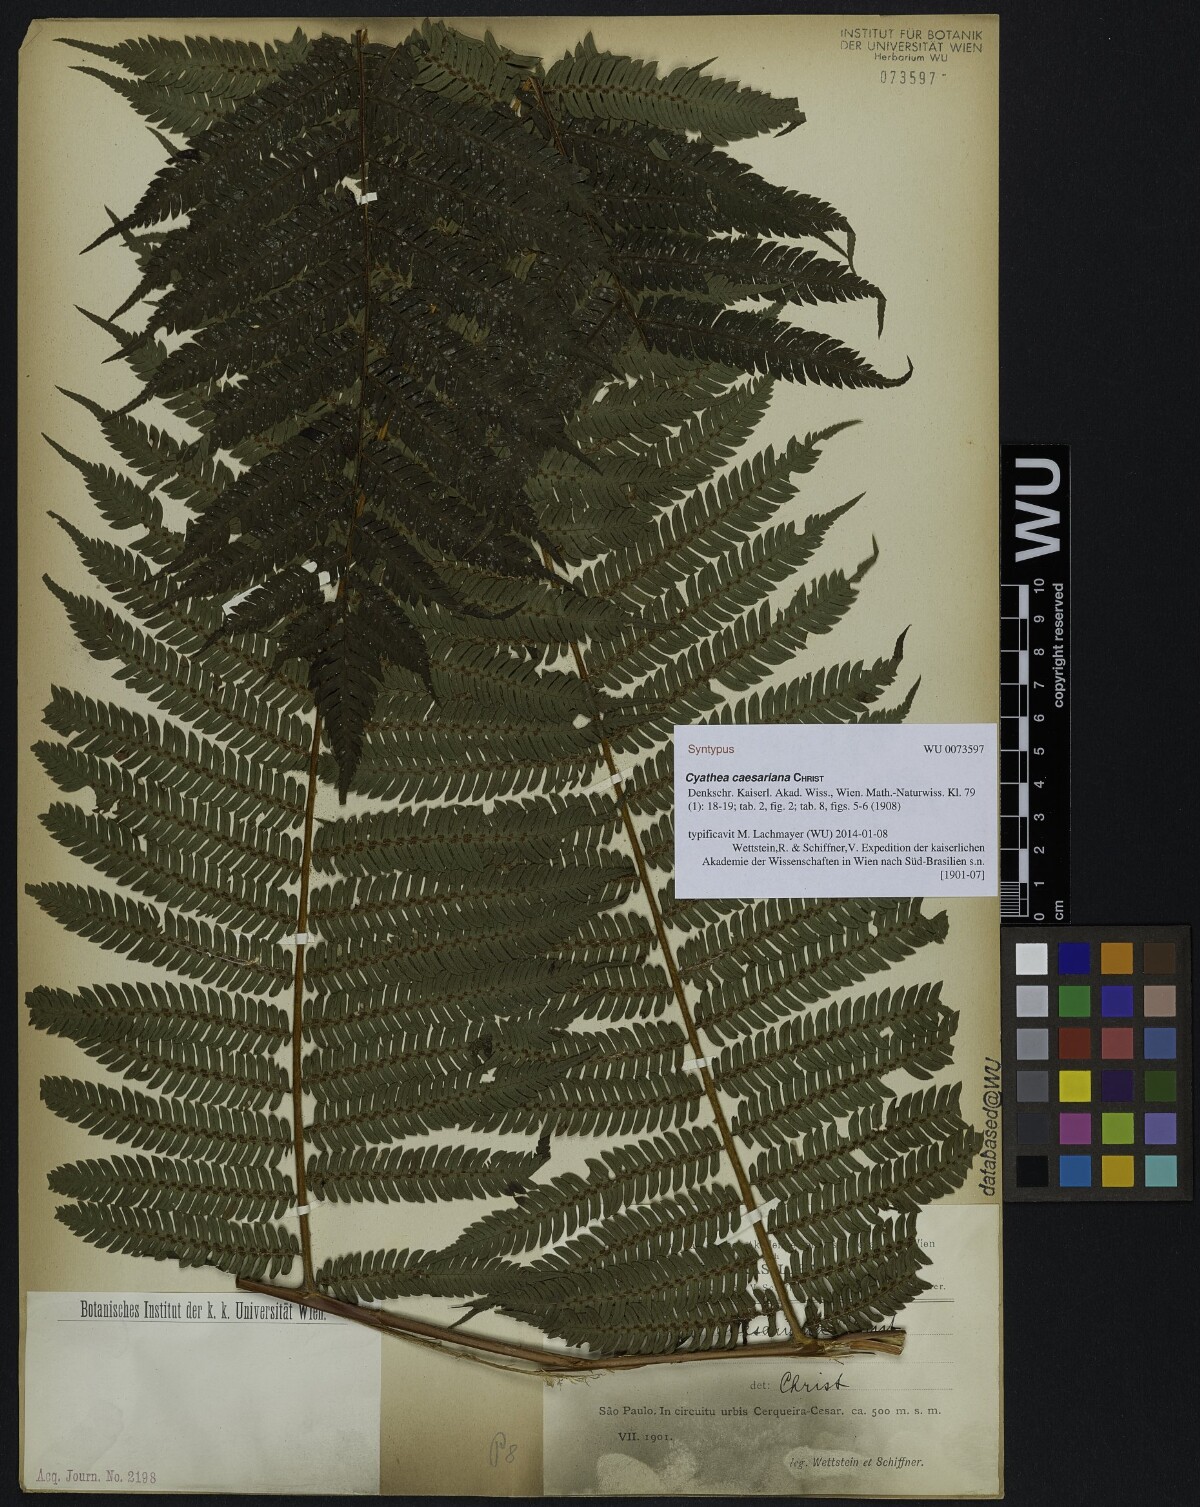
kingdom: Plantae
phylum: Tracheophyta
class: Polypodiopsida
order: Cyatheales
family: Cyatheaceae
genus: Alsophila
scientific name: Alsophila sternbergii
